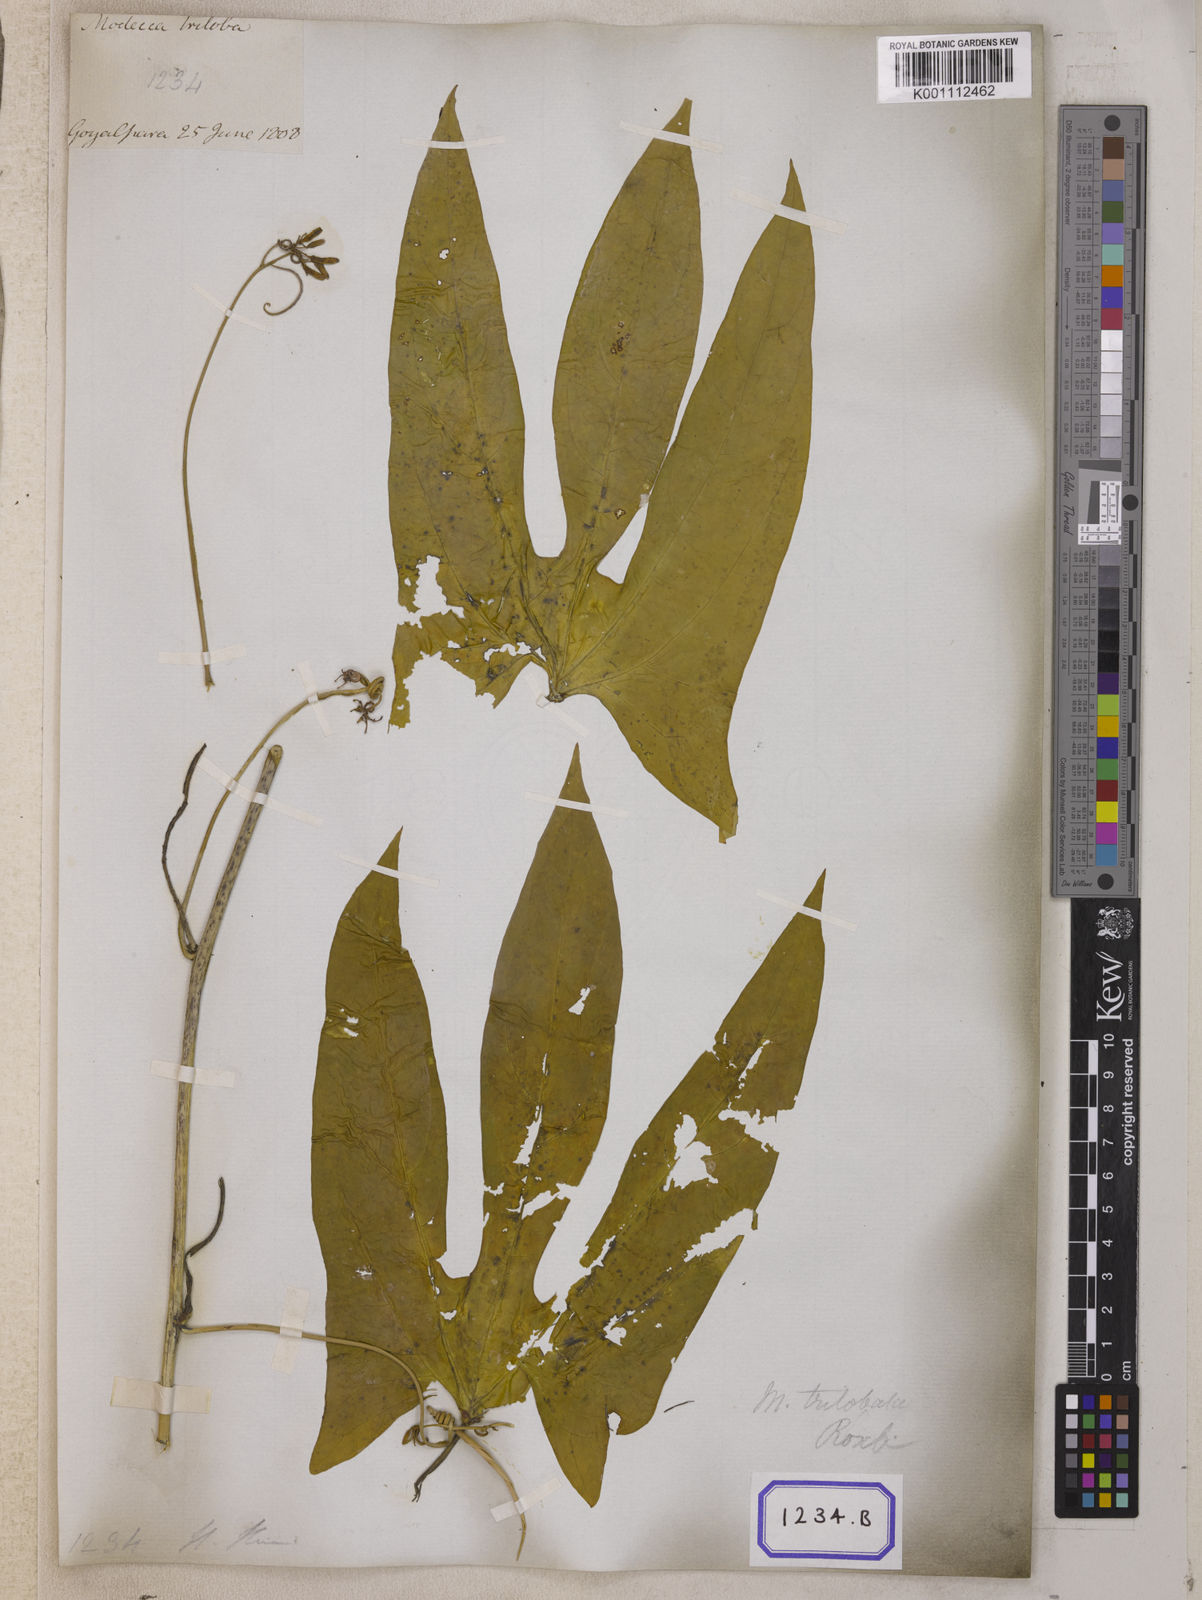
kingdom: Plantae
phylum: Tracheophyta
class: Magnoliopsida
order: Malpighiales
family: Passifloraceae
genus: Adenia
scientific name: Adenia trilobata
